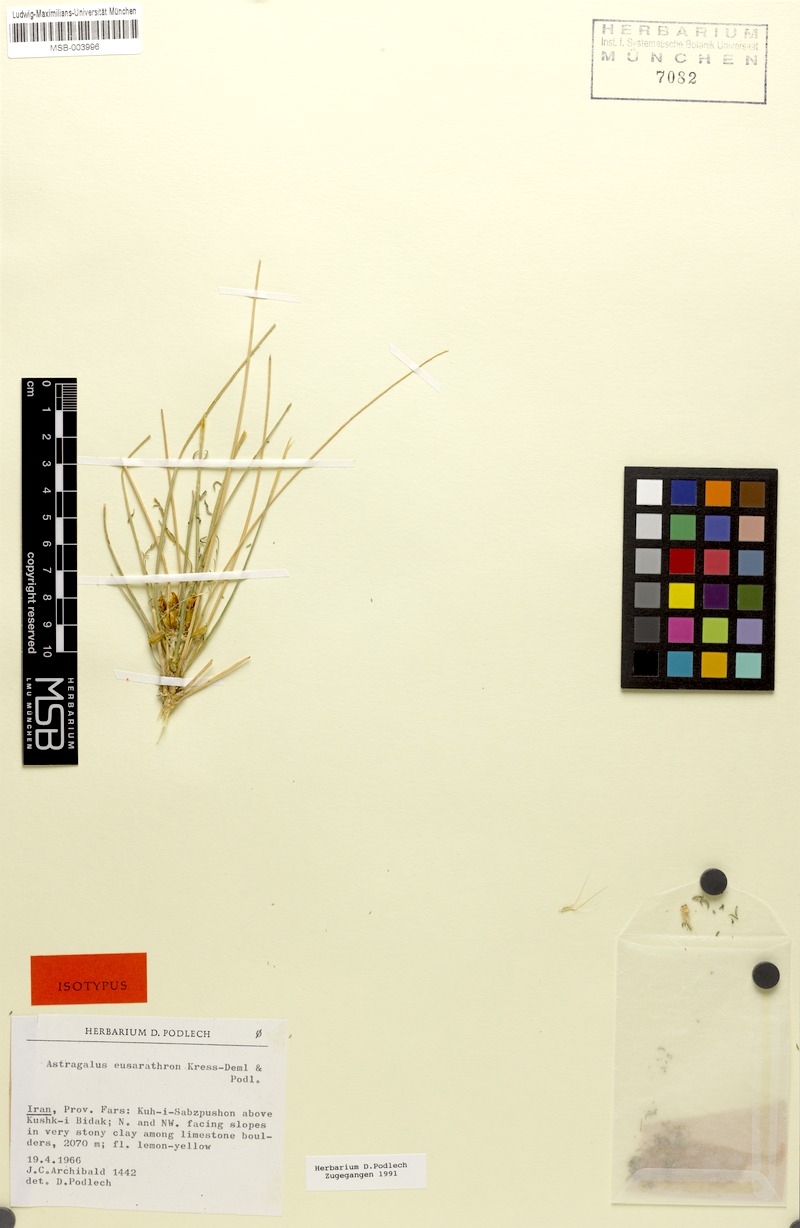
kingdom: Plantae
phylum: Tracheophyta
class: Magnoliopsida
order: Fabales
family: Fabaceae
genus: Astragalus
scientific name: Astragalus eusarathron
